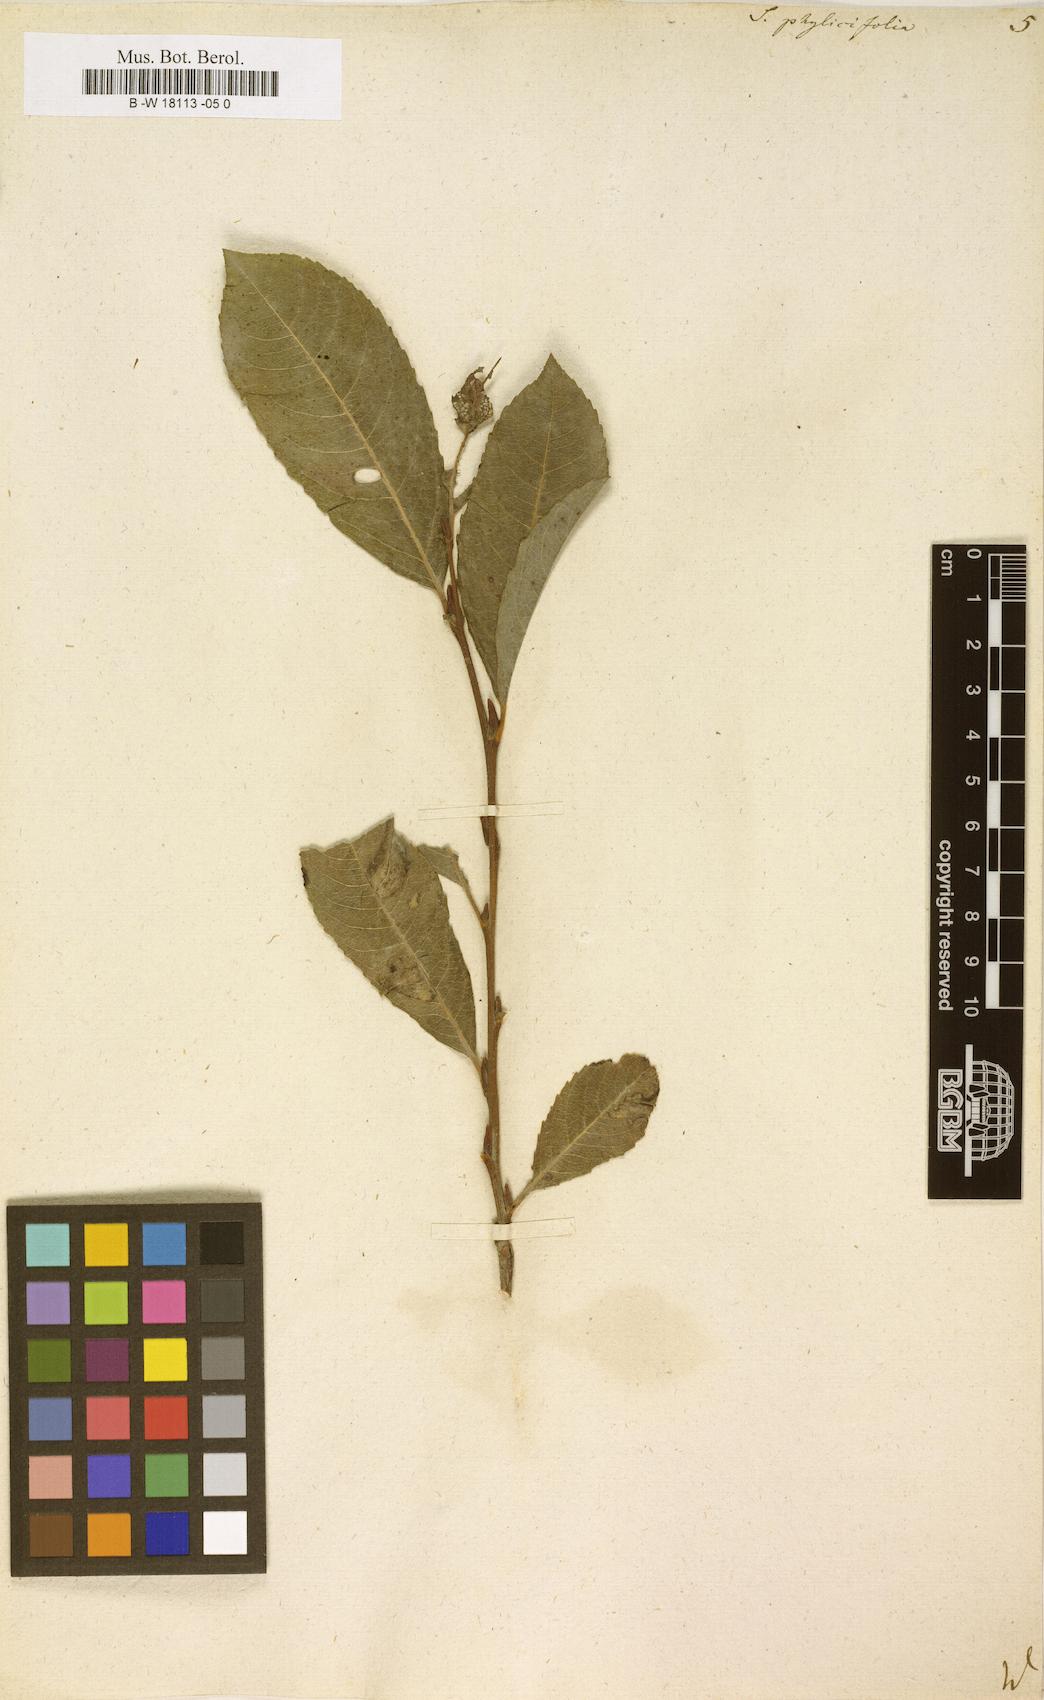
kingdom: Plantae
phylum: Tracheophyta
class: Magnoliopsida
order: Malpighiales
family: Salicaceae
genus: Salix
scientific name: Salix phylicifolia
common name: Tea-leaved willow
